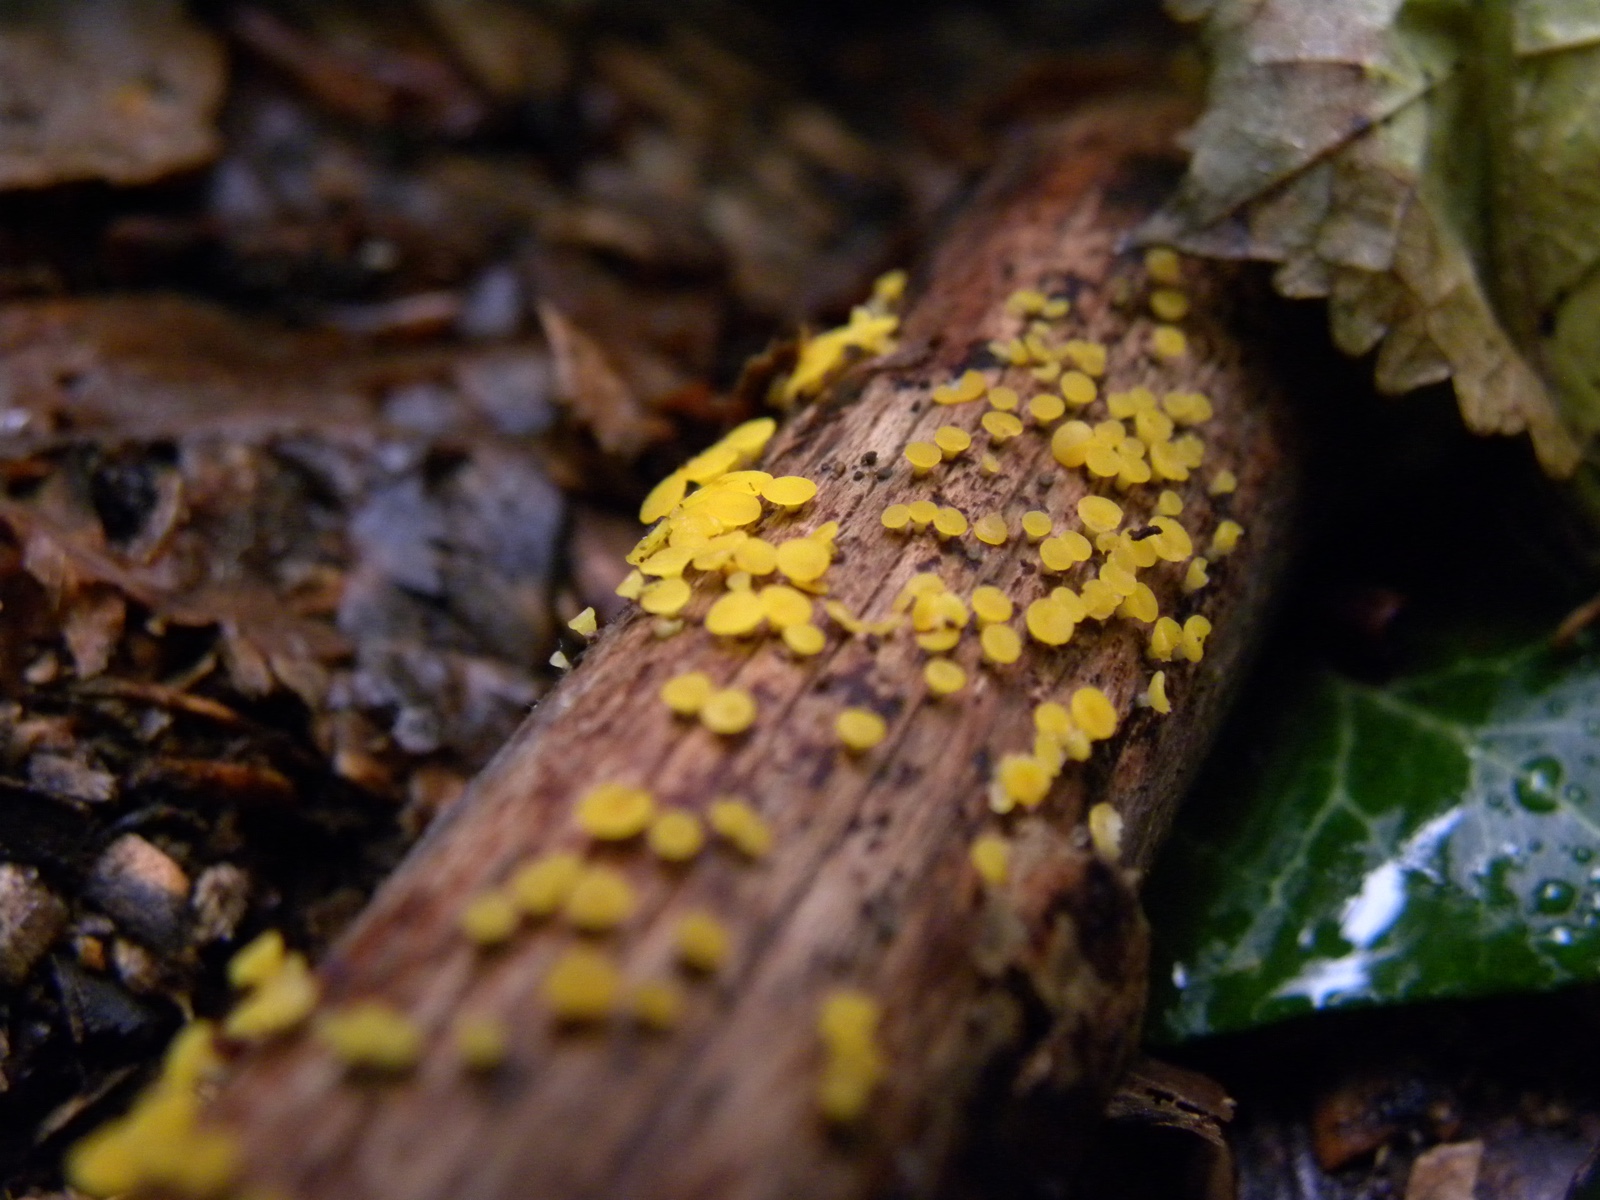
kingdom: Fungi
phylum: Ascomycota
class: Leotiomycetes
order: Helotiales
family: Pezizellaceae
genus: Calycina
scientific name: Calycina citrina
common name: almindelig gulskive
